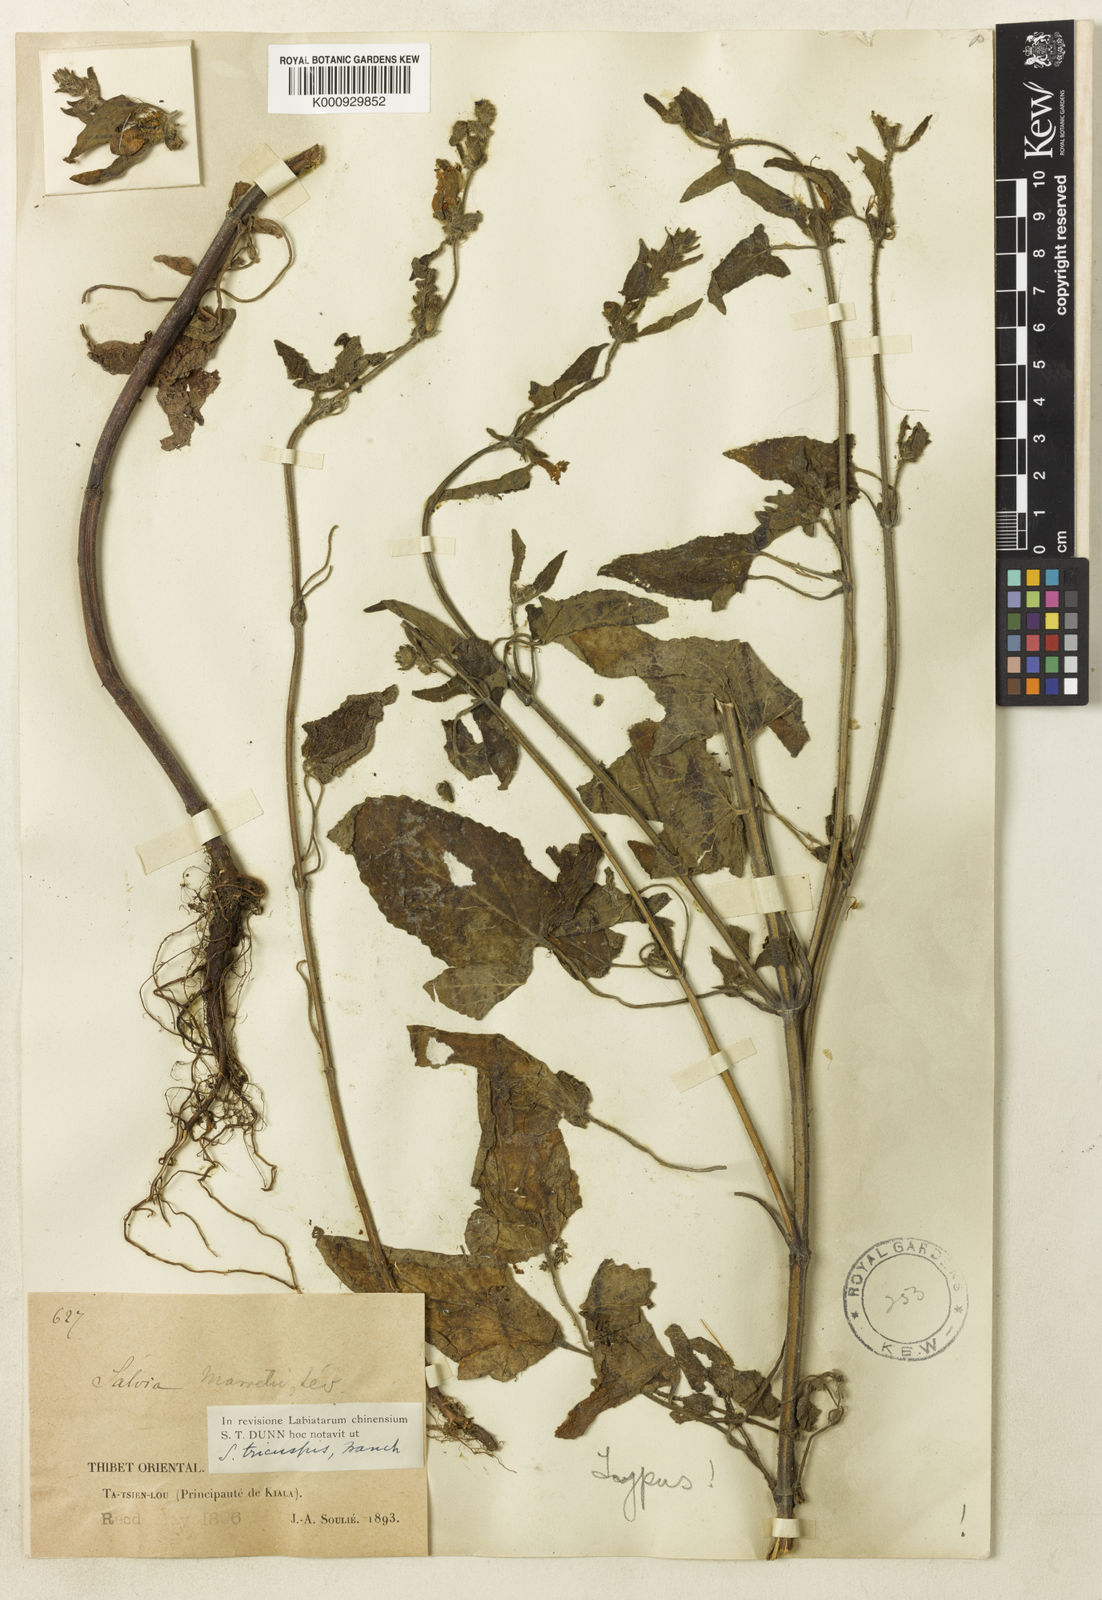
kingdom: Plantae
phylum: Tracheophyta
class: Magnoliopsida
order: Lamiales
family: Lamiaceae
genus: Salvia
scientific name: Salvia tricuspis
